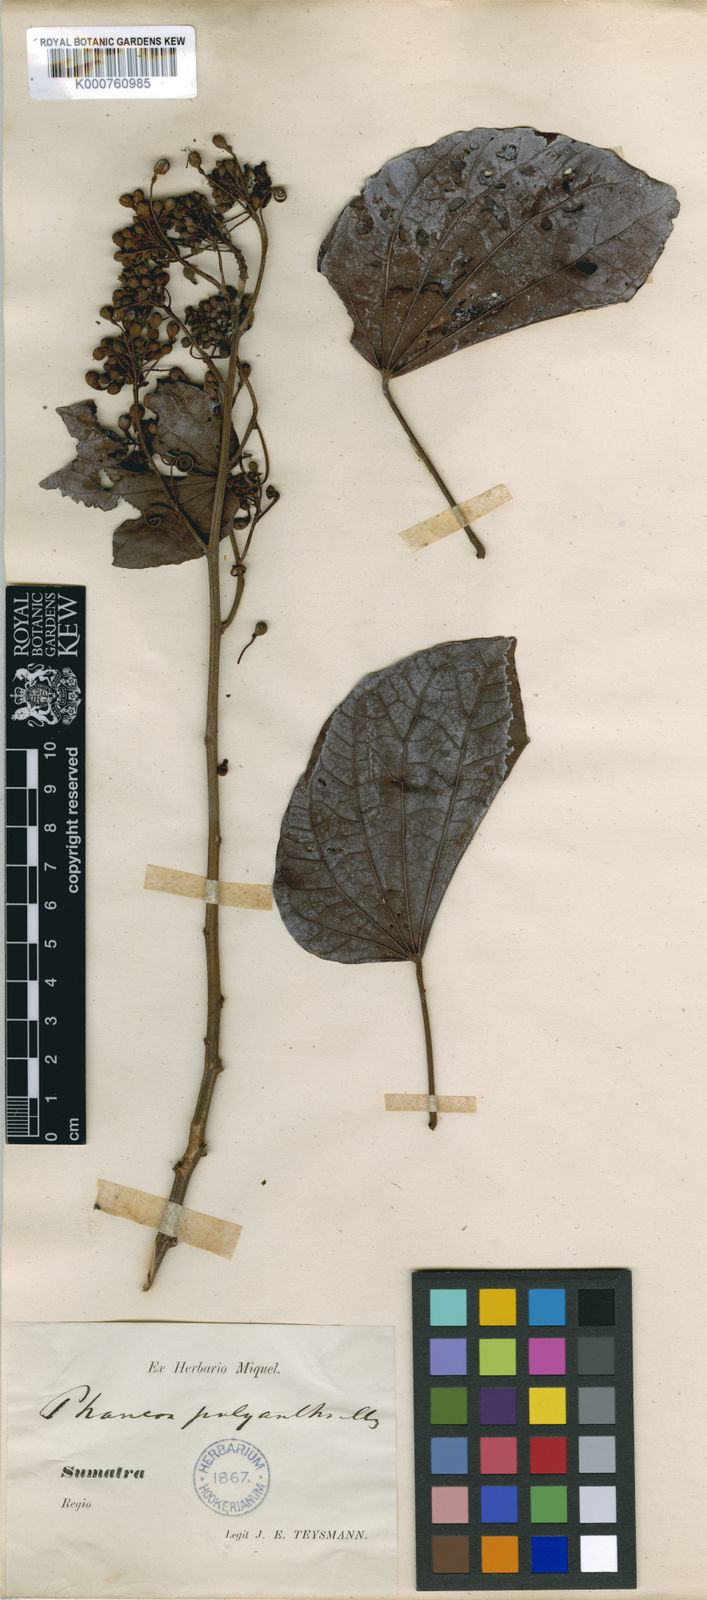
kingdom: Plantae
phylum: Tracheophyta
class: Magnoliopsida
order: Fabales
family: Fabaceae
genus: Phanera
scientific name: Phanera integrifolia
